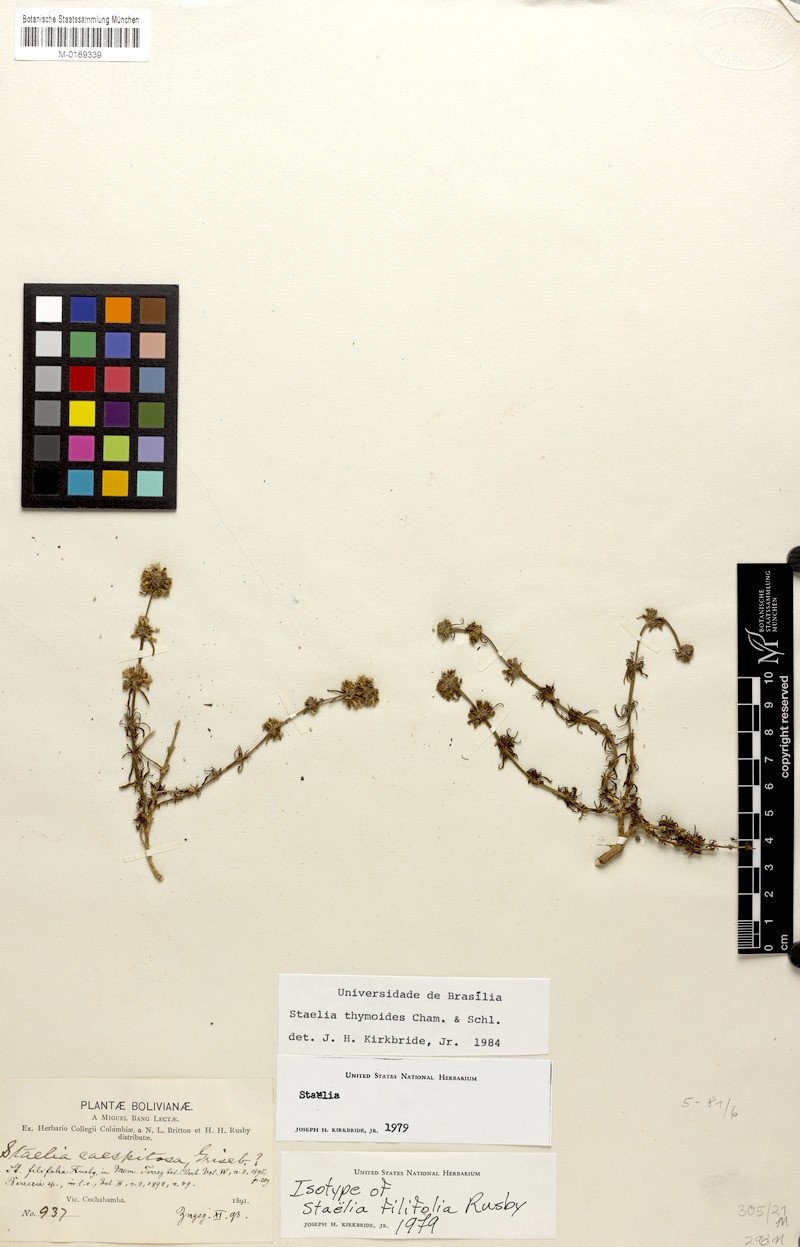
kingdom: Plantae
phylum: Tracheophyta
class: Magnoliopsida
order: Gentianales
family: Rubiaceae
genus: Staelia
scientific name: Staelia thymoides
